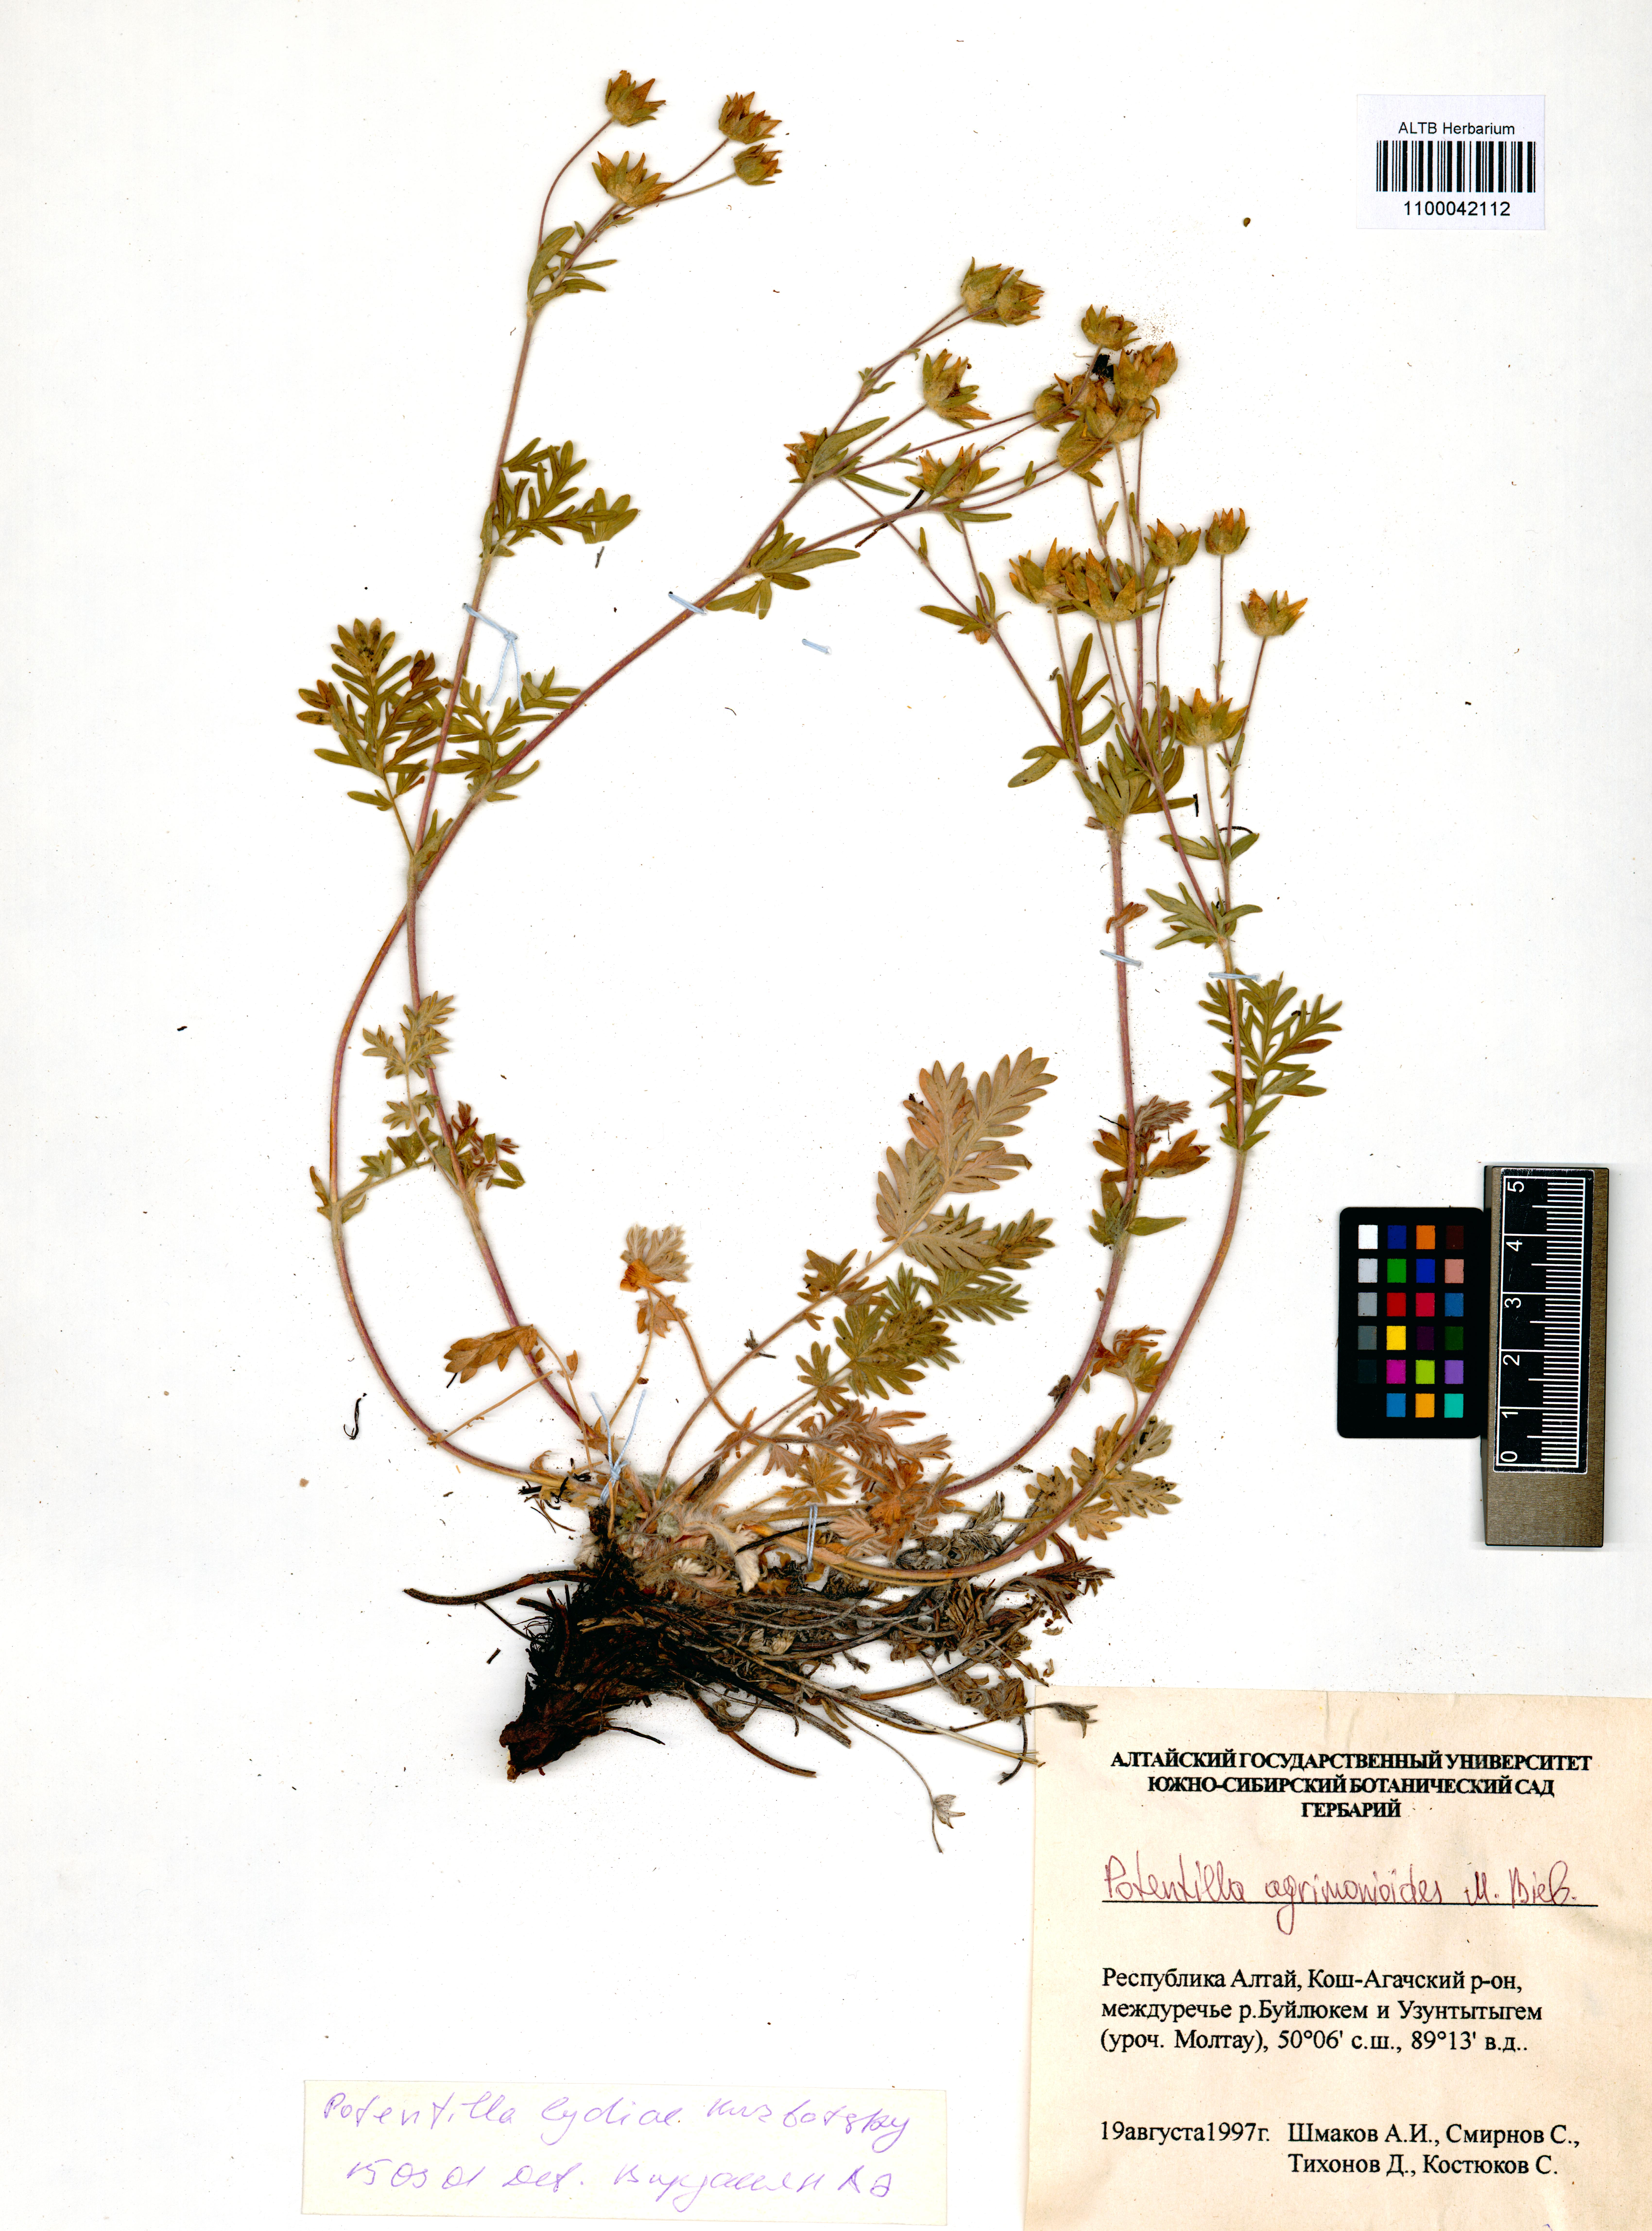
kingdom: Plantae
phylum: Tracheophyta
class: Magnoliopsida
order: Rosales
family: Rosaceae
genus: Potentilla
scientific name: Potentilla agrimonioides
